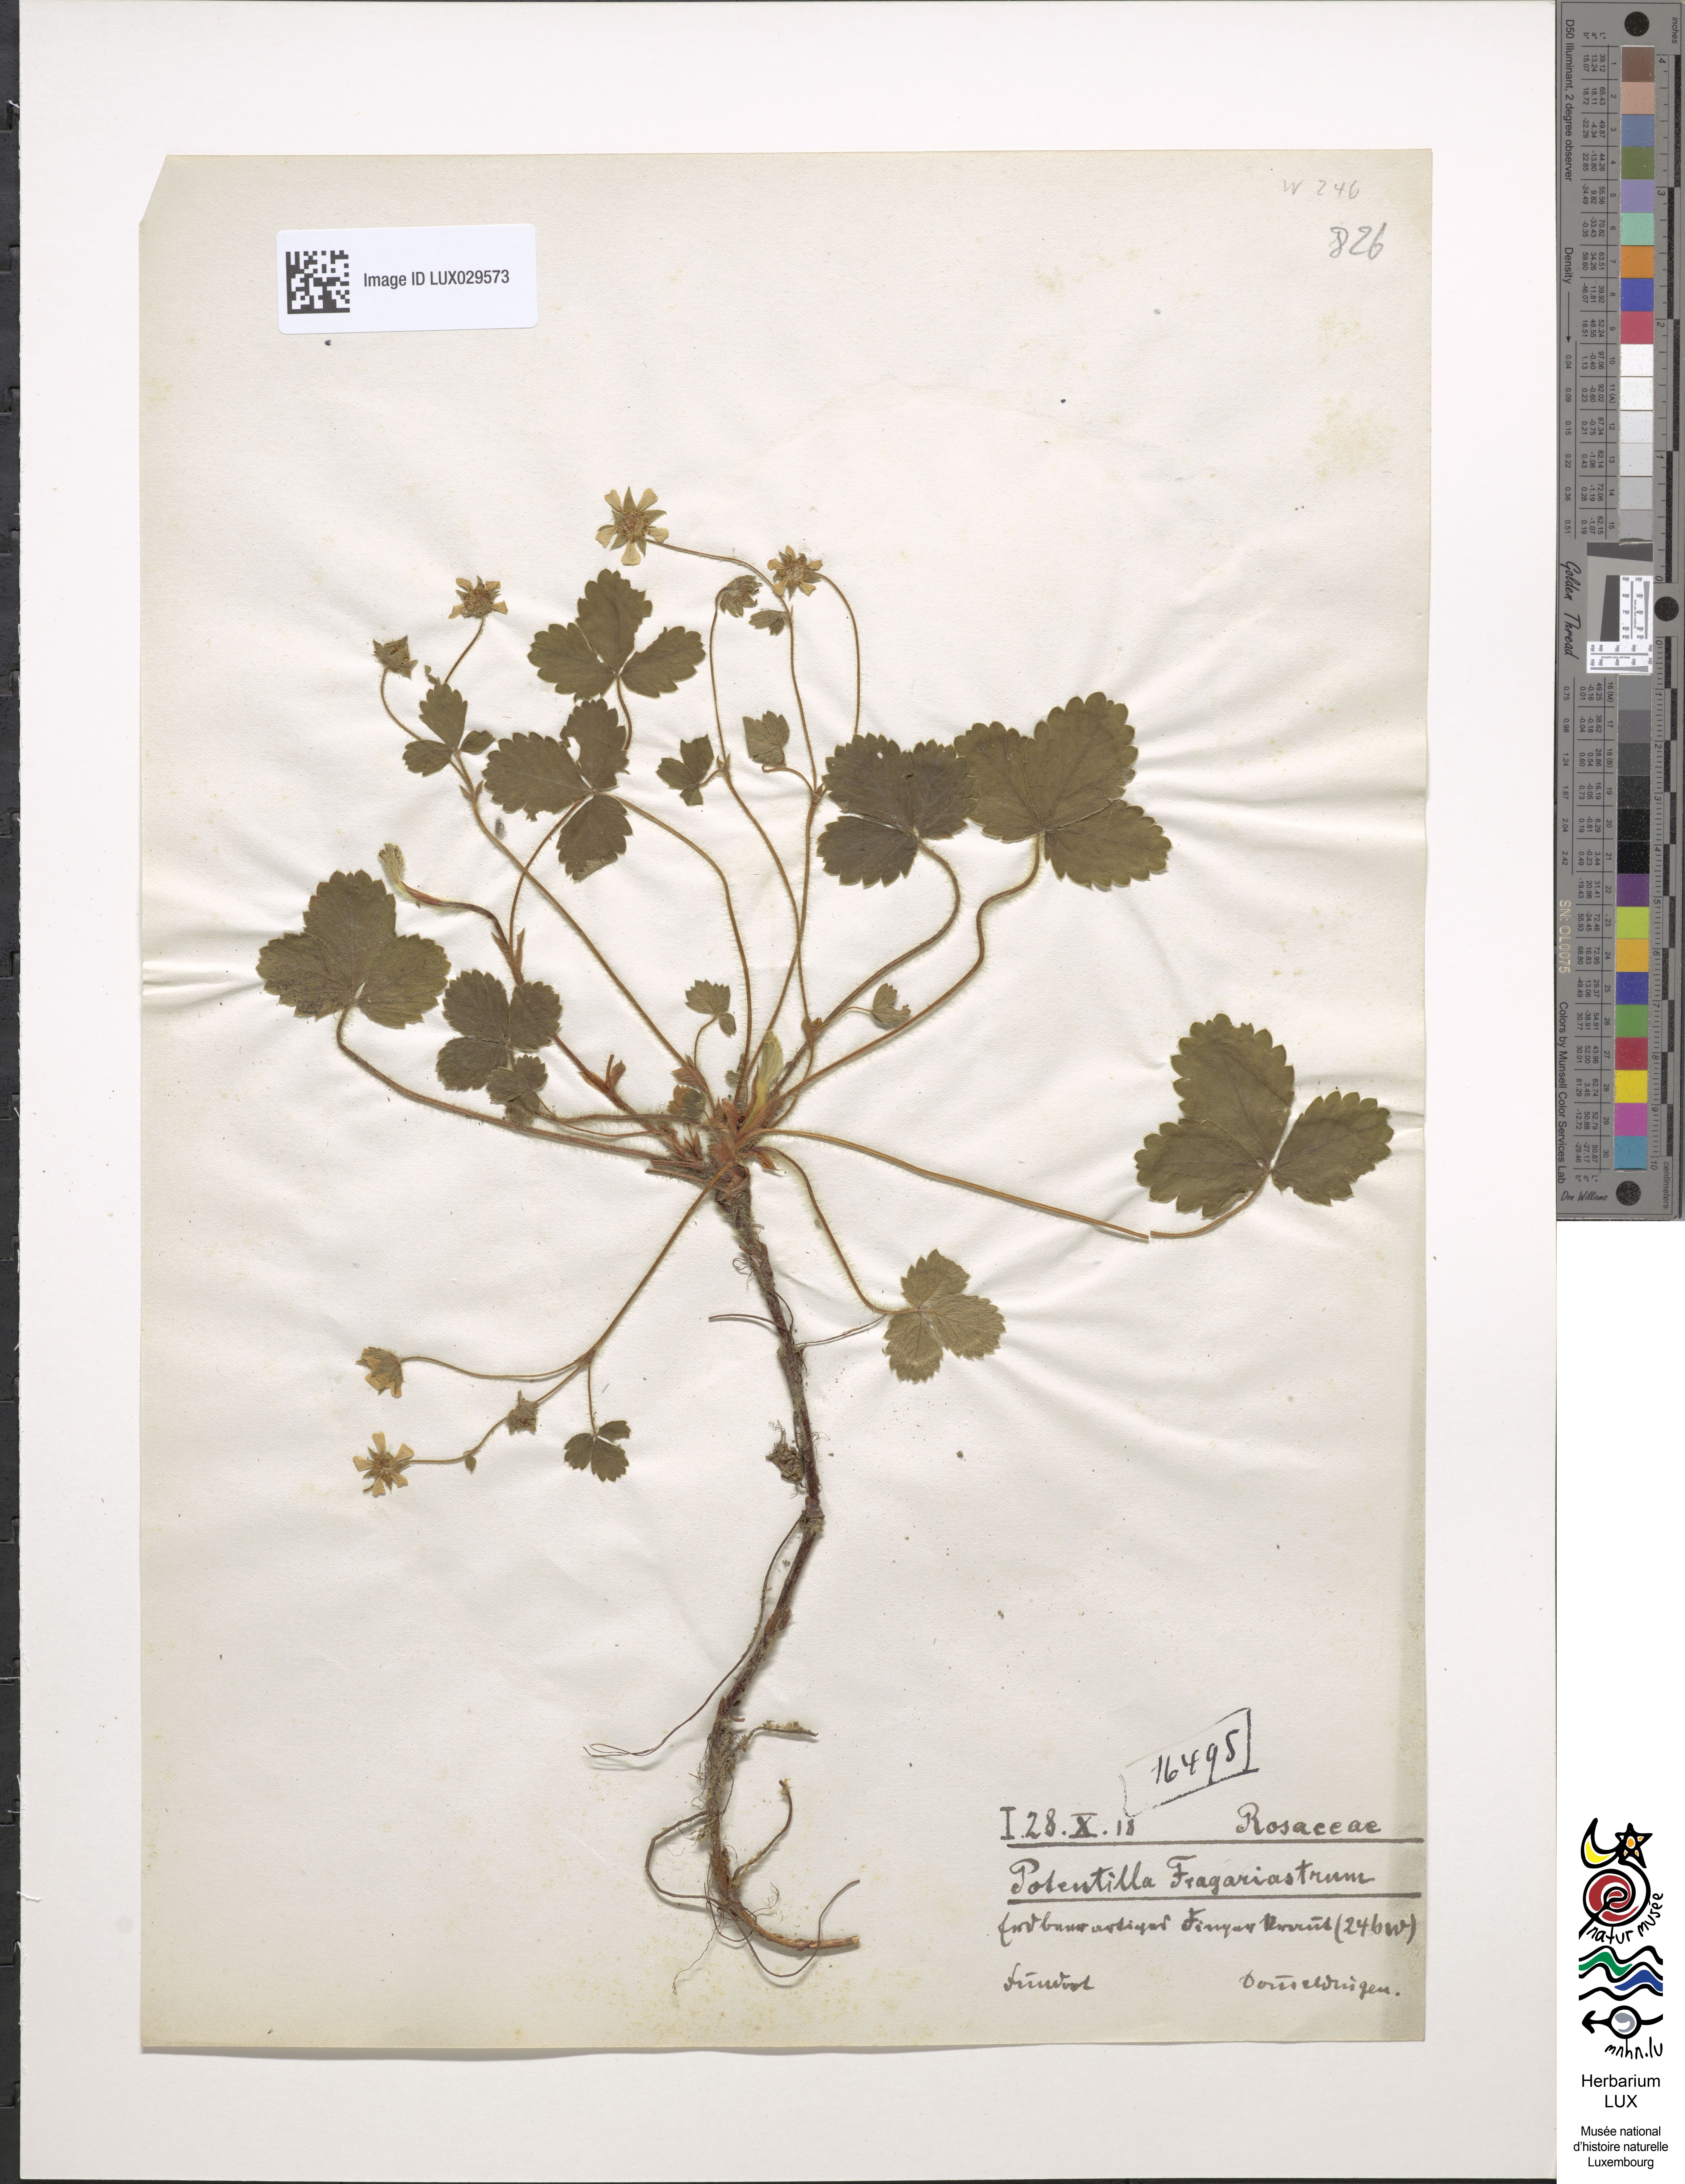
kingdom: Plantae
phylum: Tracheophyta
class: Magnoliopsida
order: Rosales
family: Rosaceae
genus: Potentilla
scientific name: Potentilla sterilis
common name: Barren strawberry
